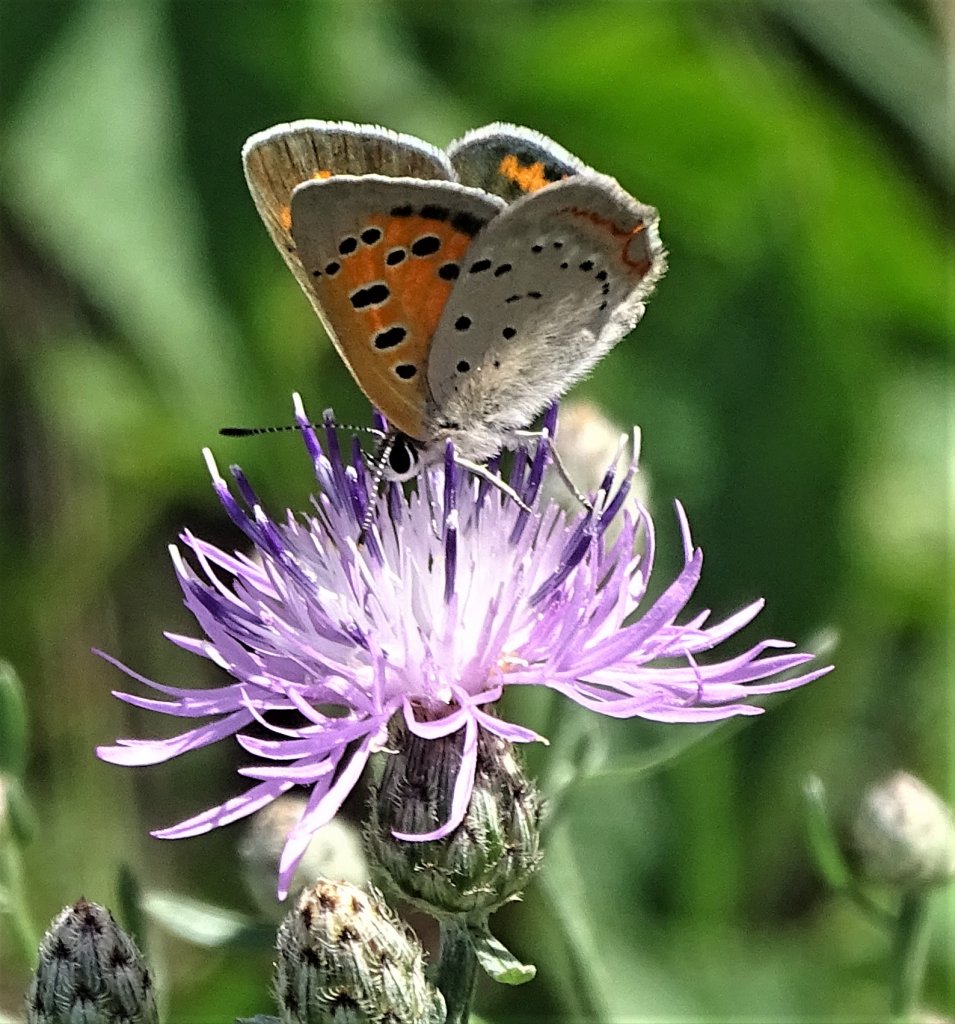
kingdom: Animalia
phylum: Arthropoda
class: Insecta
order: Lepidoptera
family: Lycaenidae
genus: Lycaena
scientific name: Lycaena phlaeas
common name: American Copper
